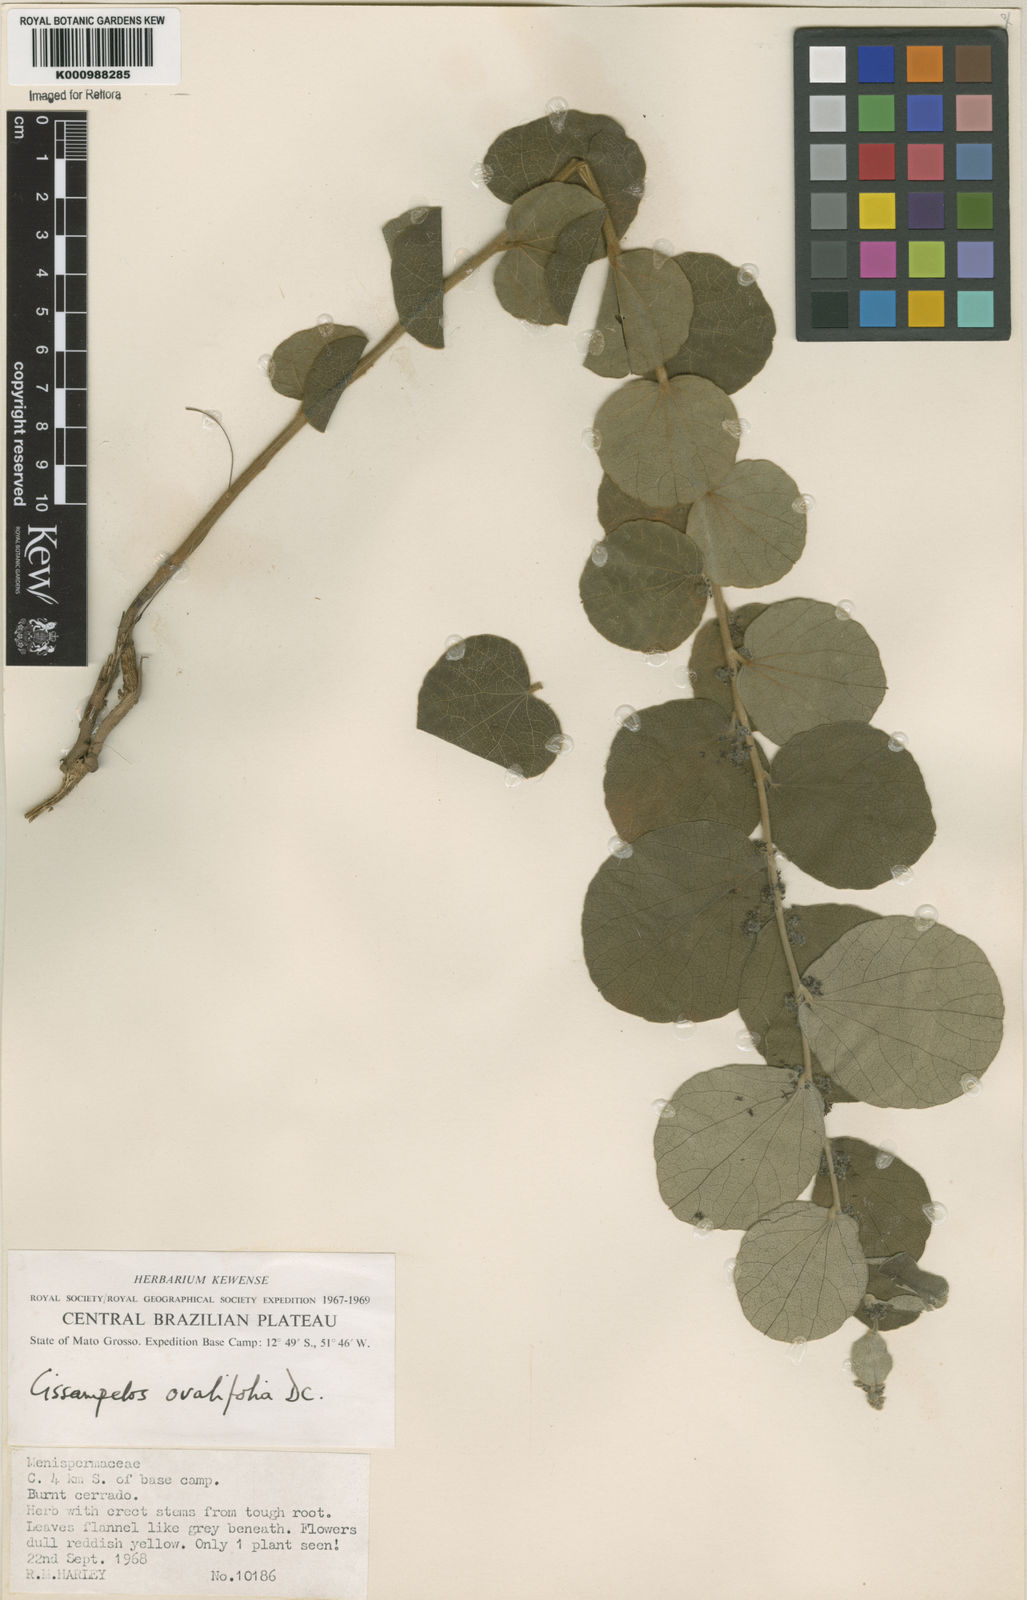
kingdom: Plantae
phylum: Tracheophyta
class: Magnoliopsida
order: Ranunculales
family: Menispermaceae
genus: Cissampelos
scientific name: Cissampelos ovalifolia
